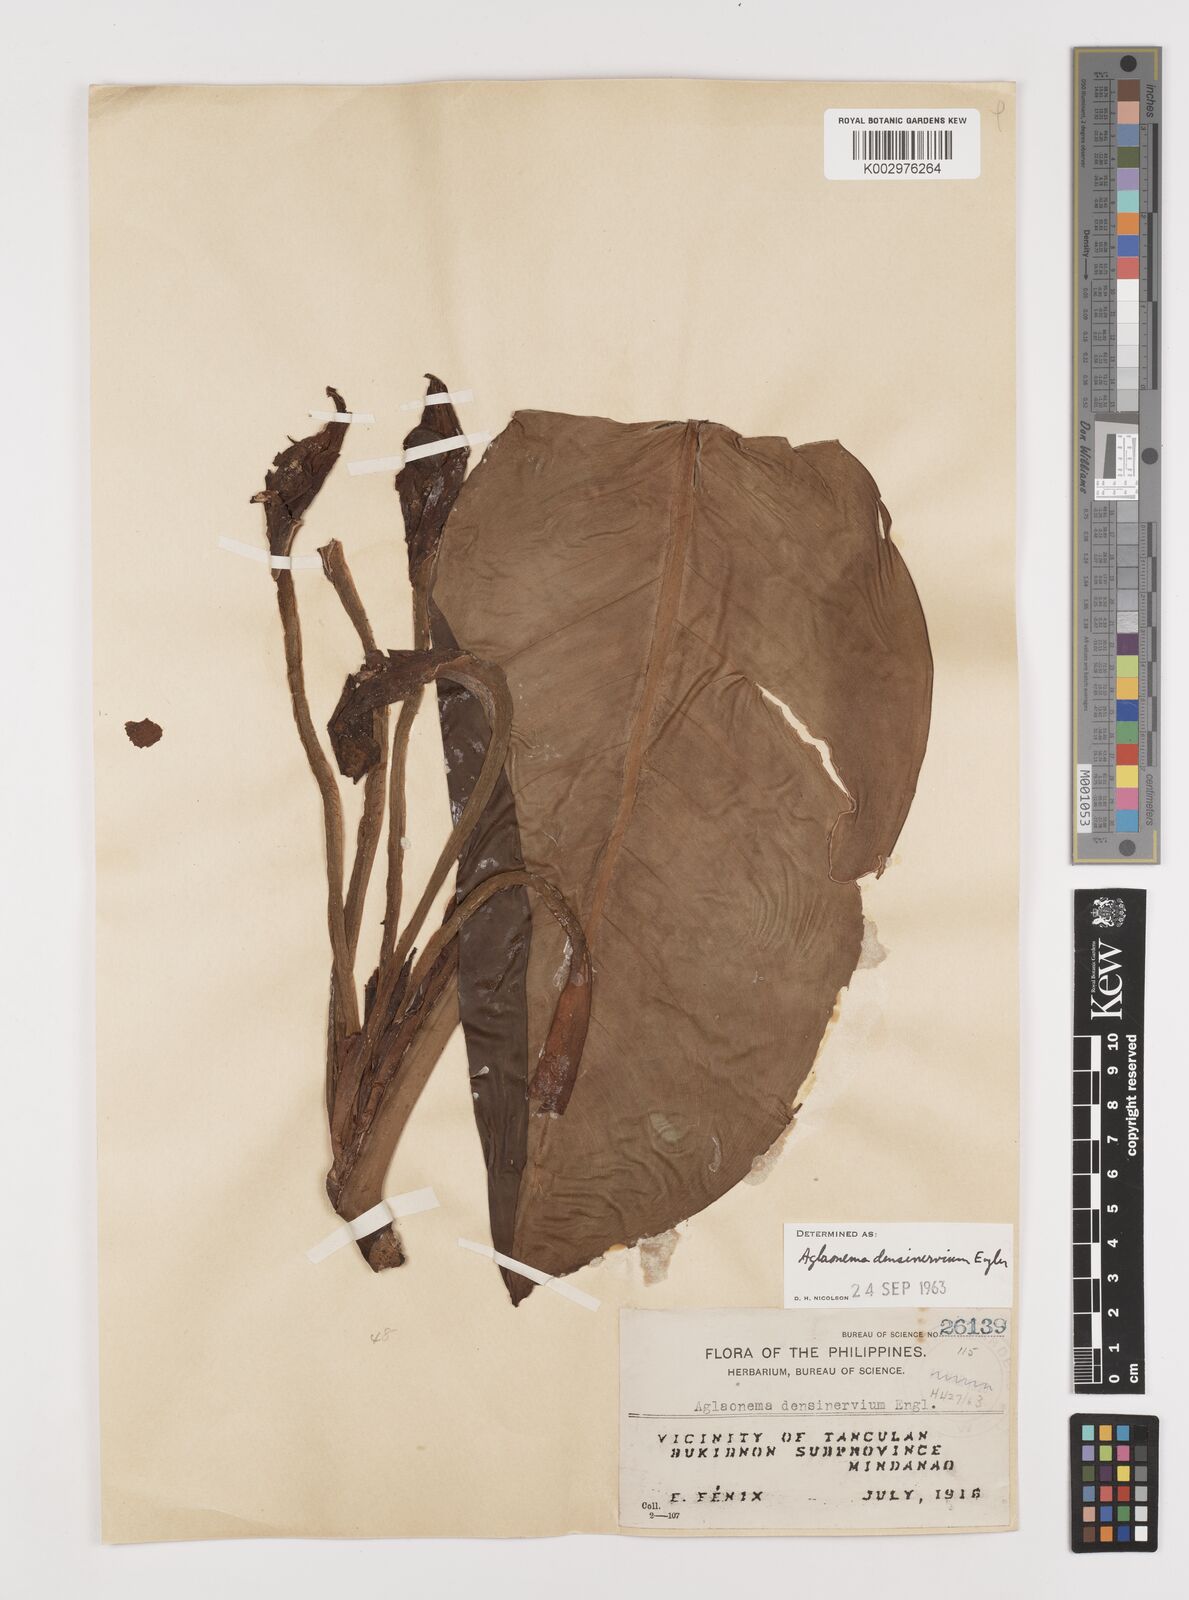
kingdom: Plantae
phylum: Tracheophyta
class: Liliopsida
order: Alismatales
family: Araceae
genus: Aglaonema
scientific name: Aglaonema densinervium
